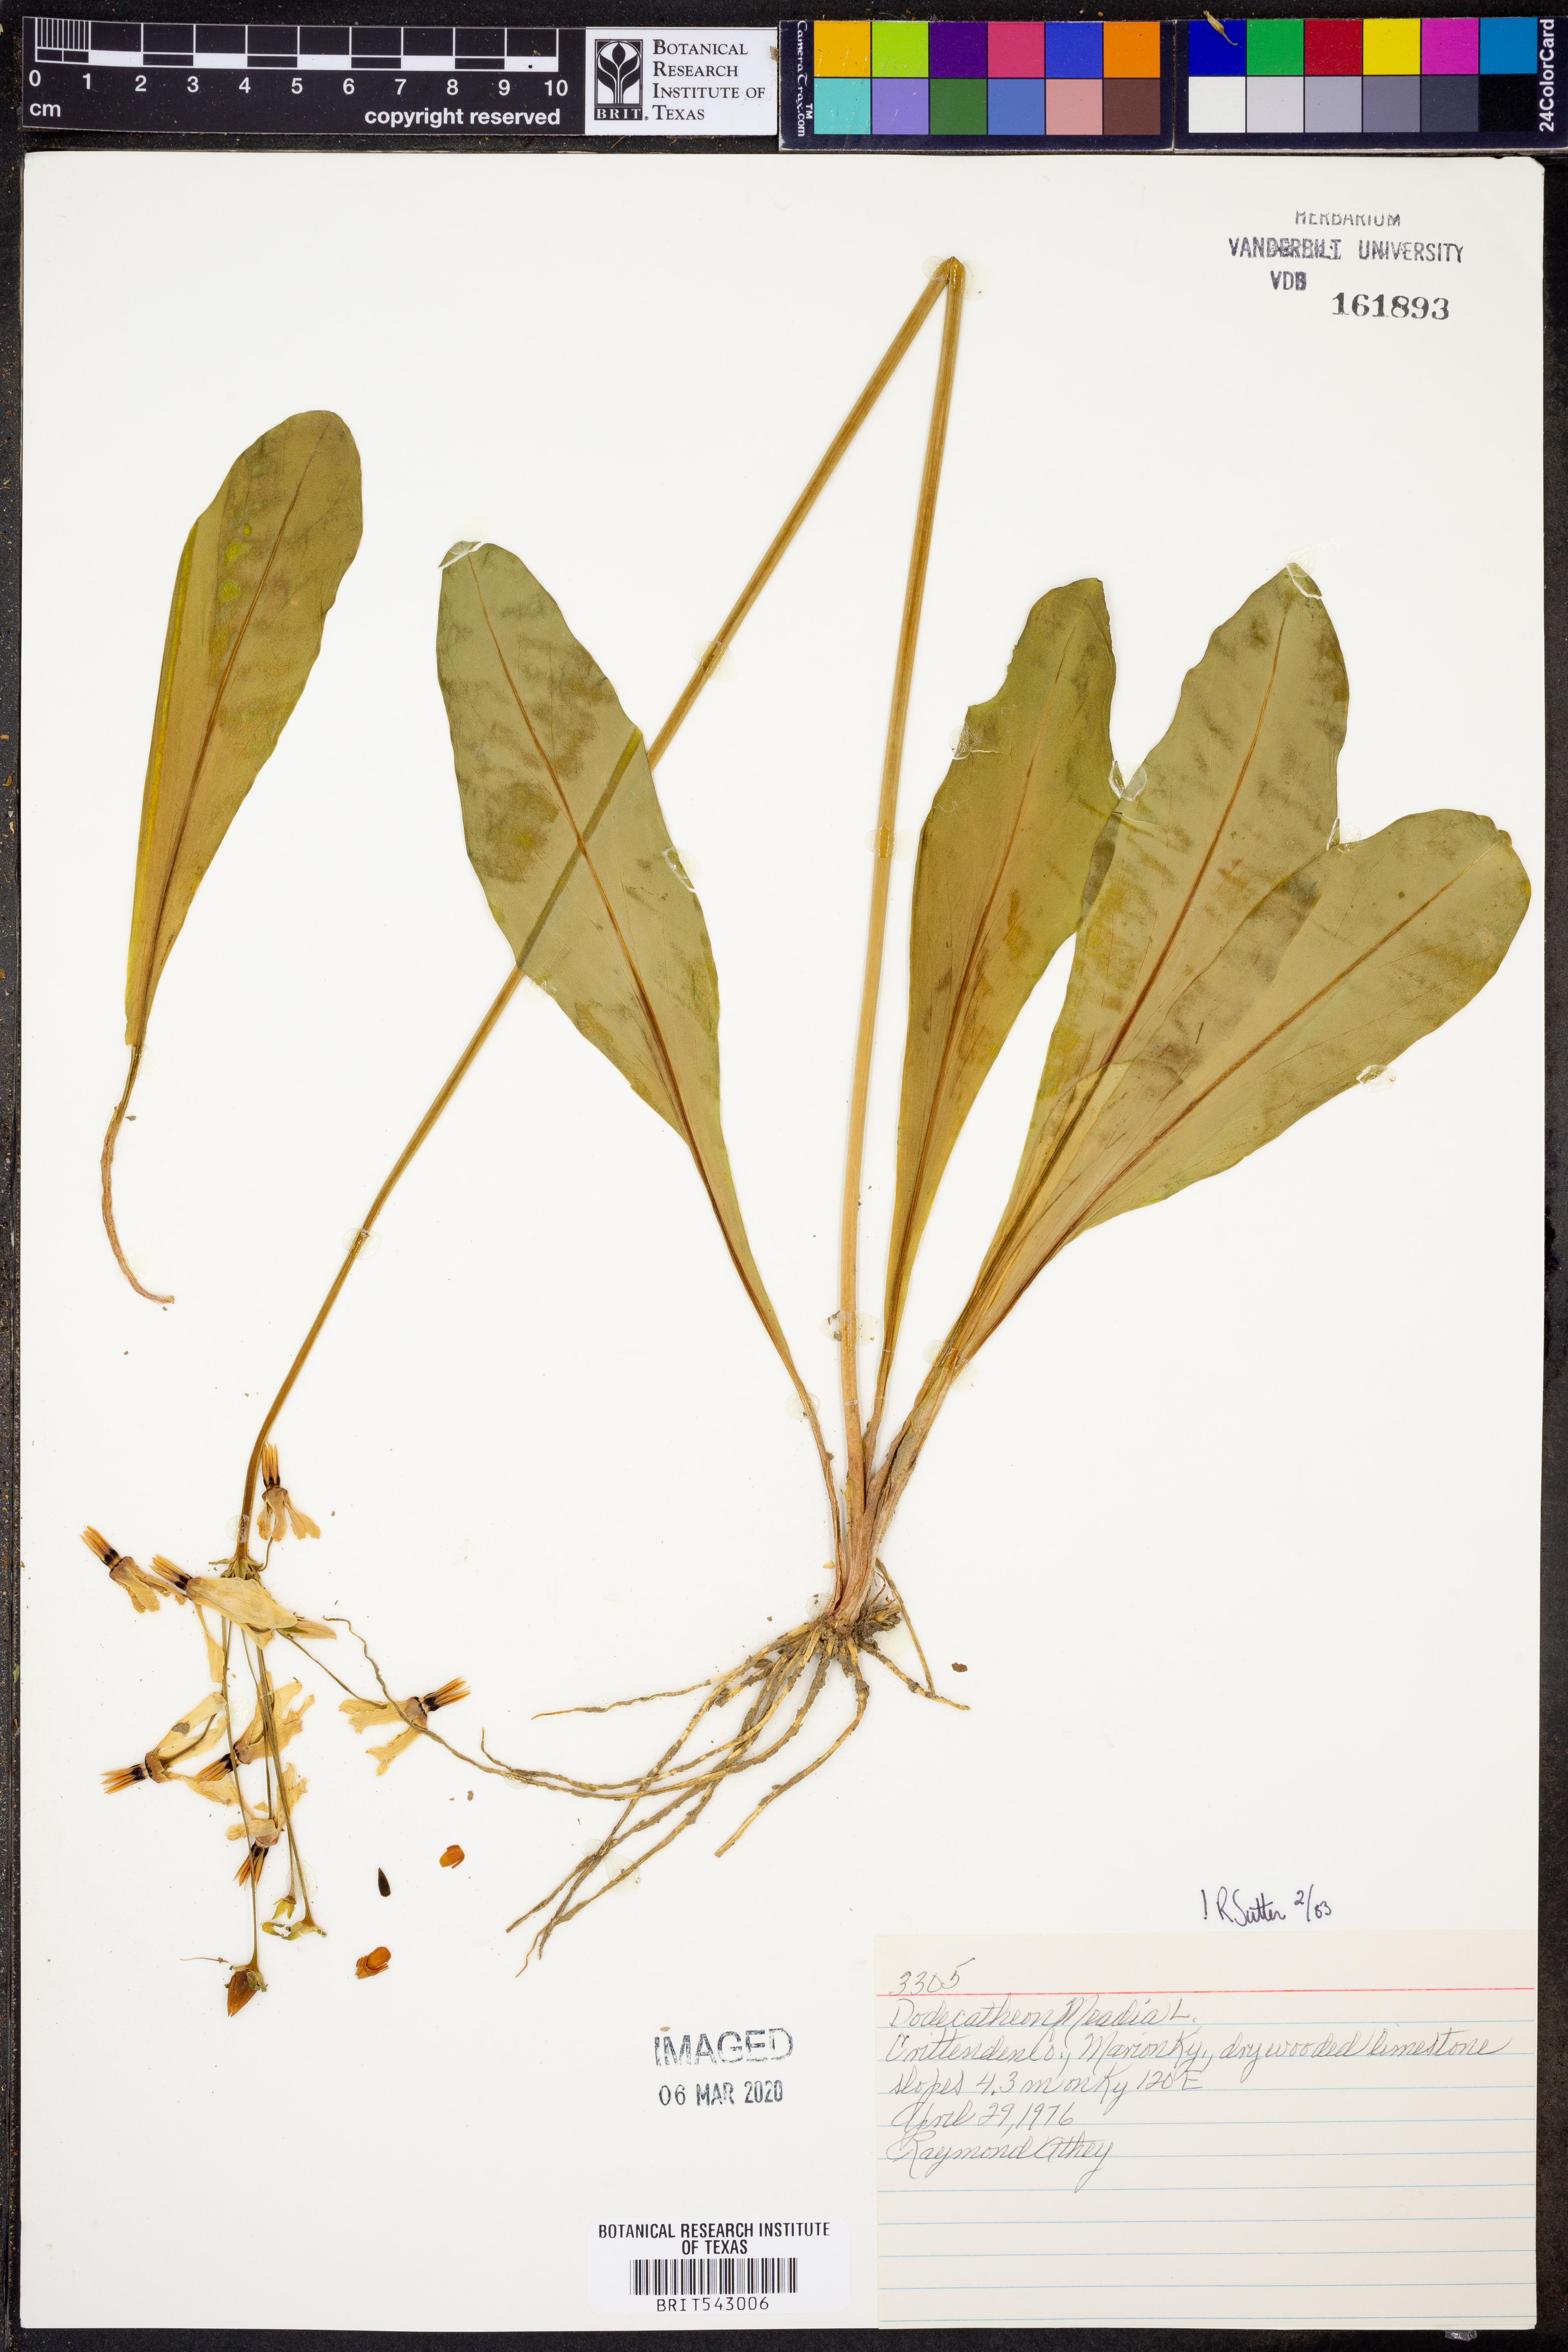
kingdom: Plantae
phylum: Tracheophyta
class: Magnoliopsida
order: Ericales
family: Primulaceae
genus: Dodecatheon
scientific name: Dodecatheon meadia
